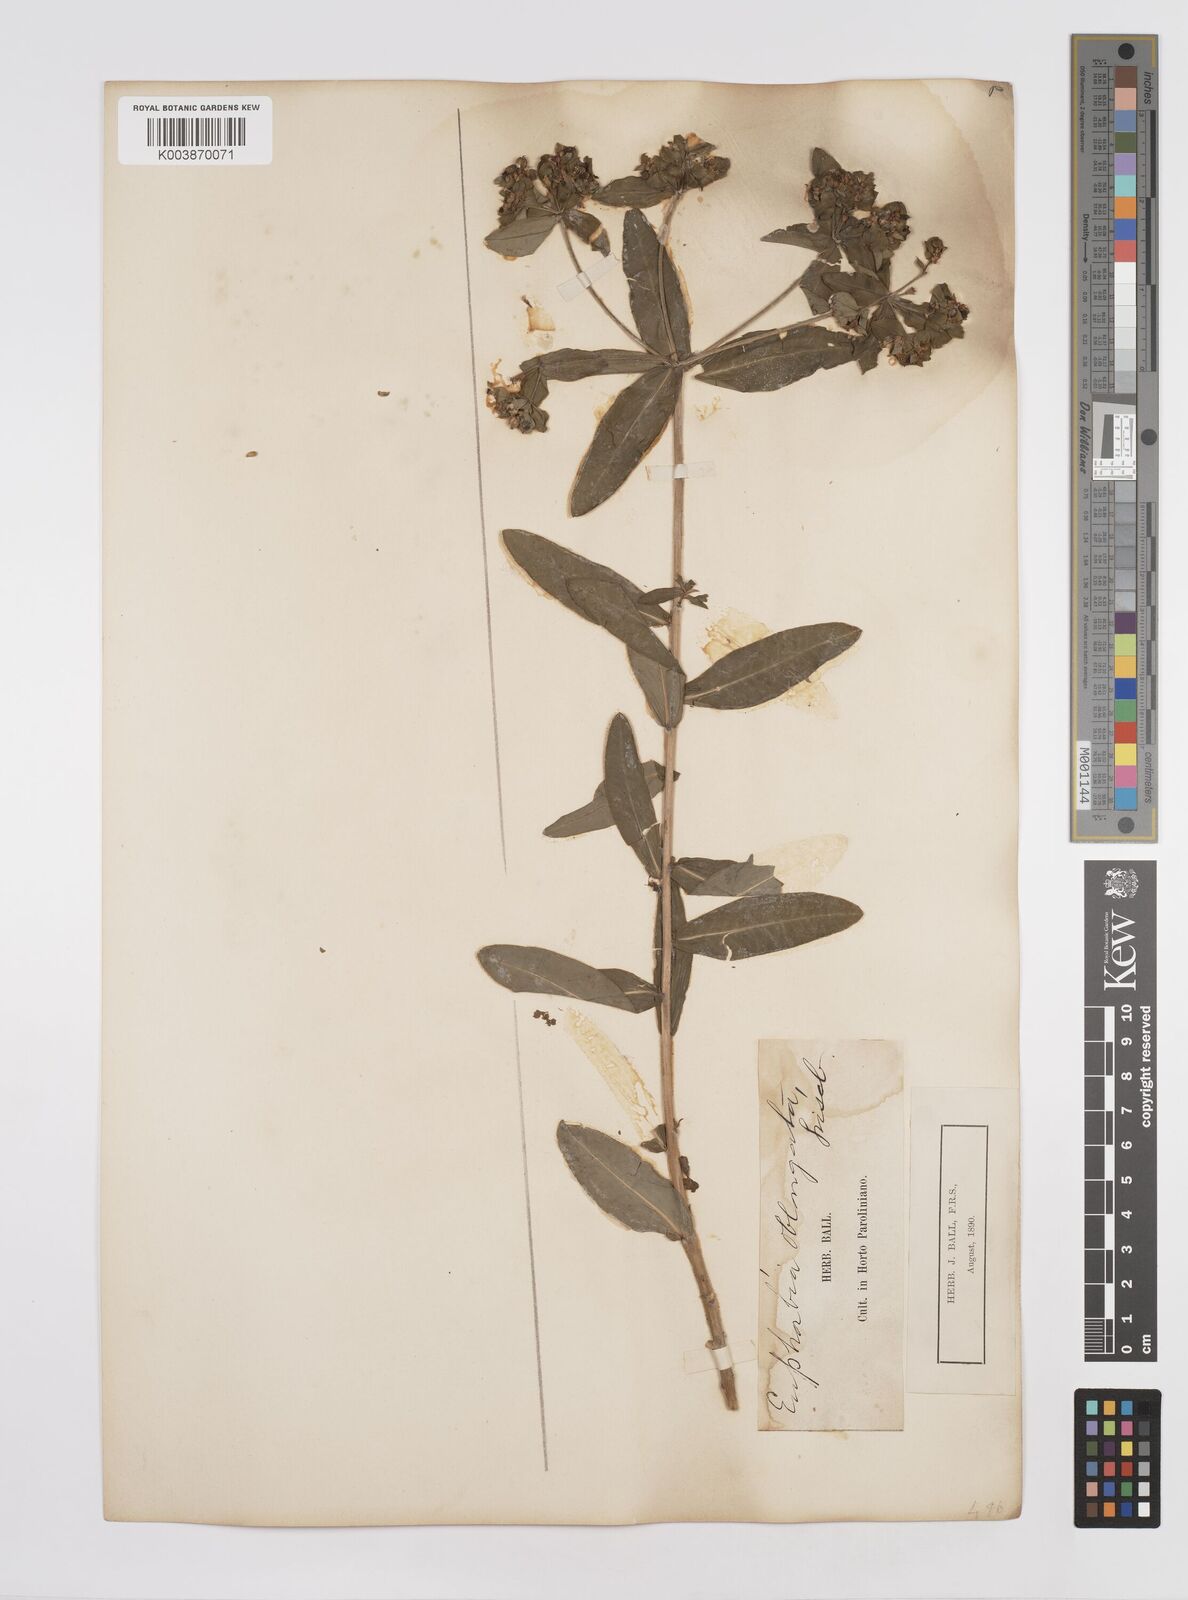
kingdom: Plantae
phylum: Tracheophyta
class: Magnoliopsida
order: Malpighiales
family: Euphorbiaceae
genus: Euphorbia
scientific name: Euphorbia oblongata
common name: Balkan spurge
